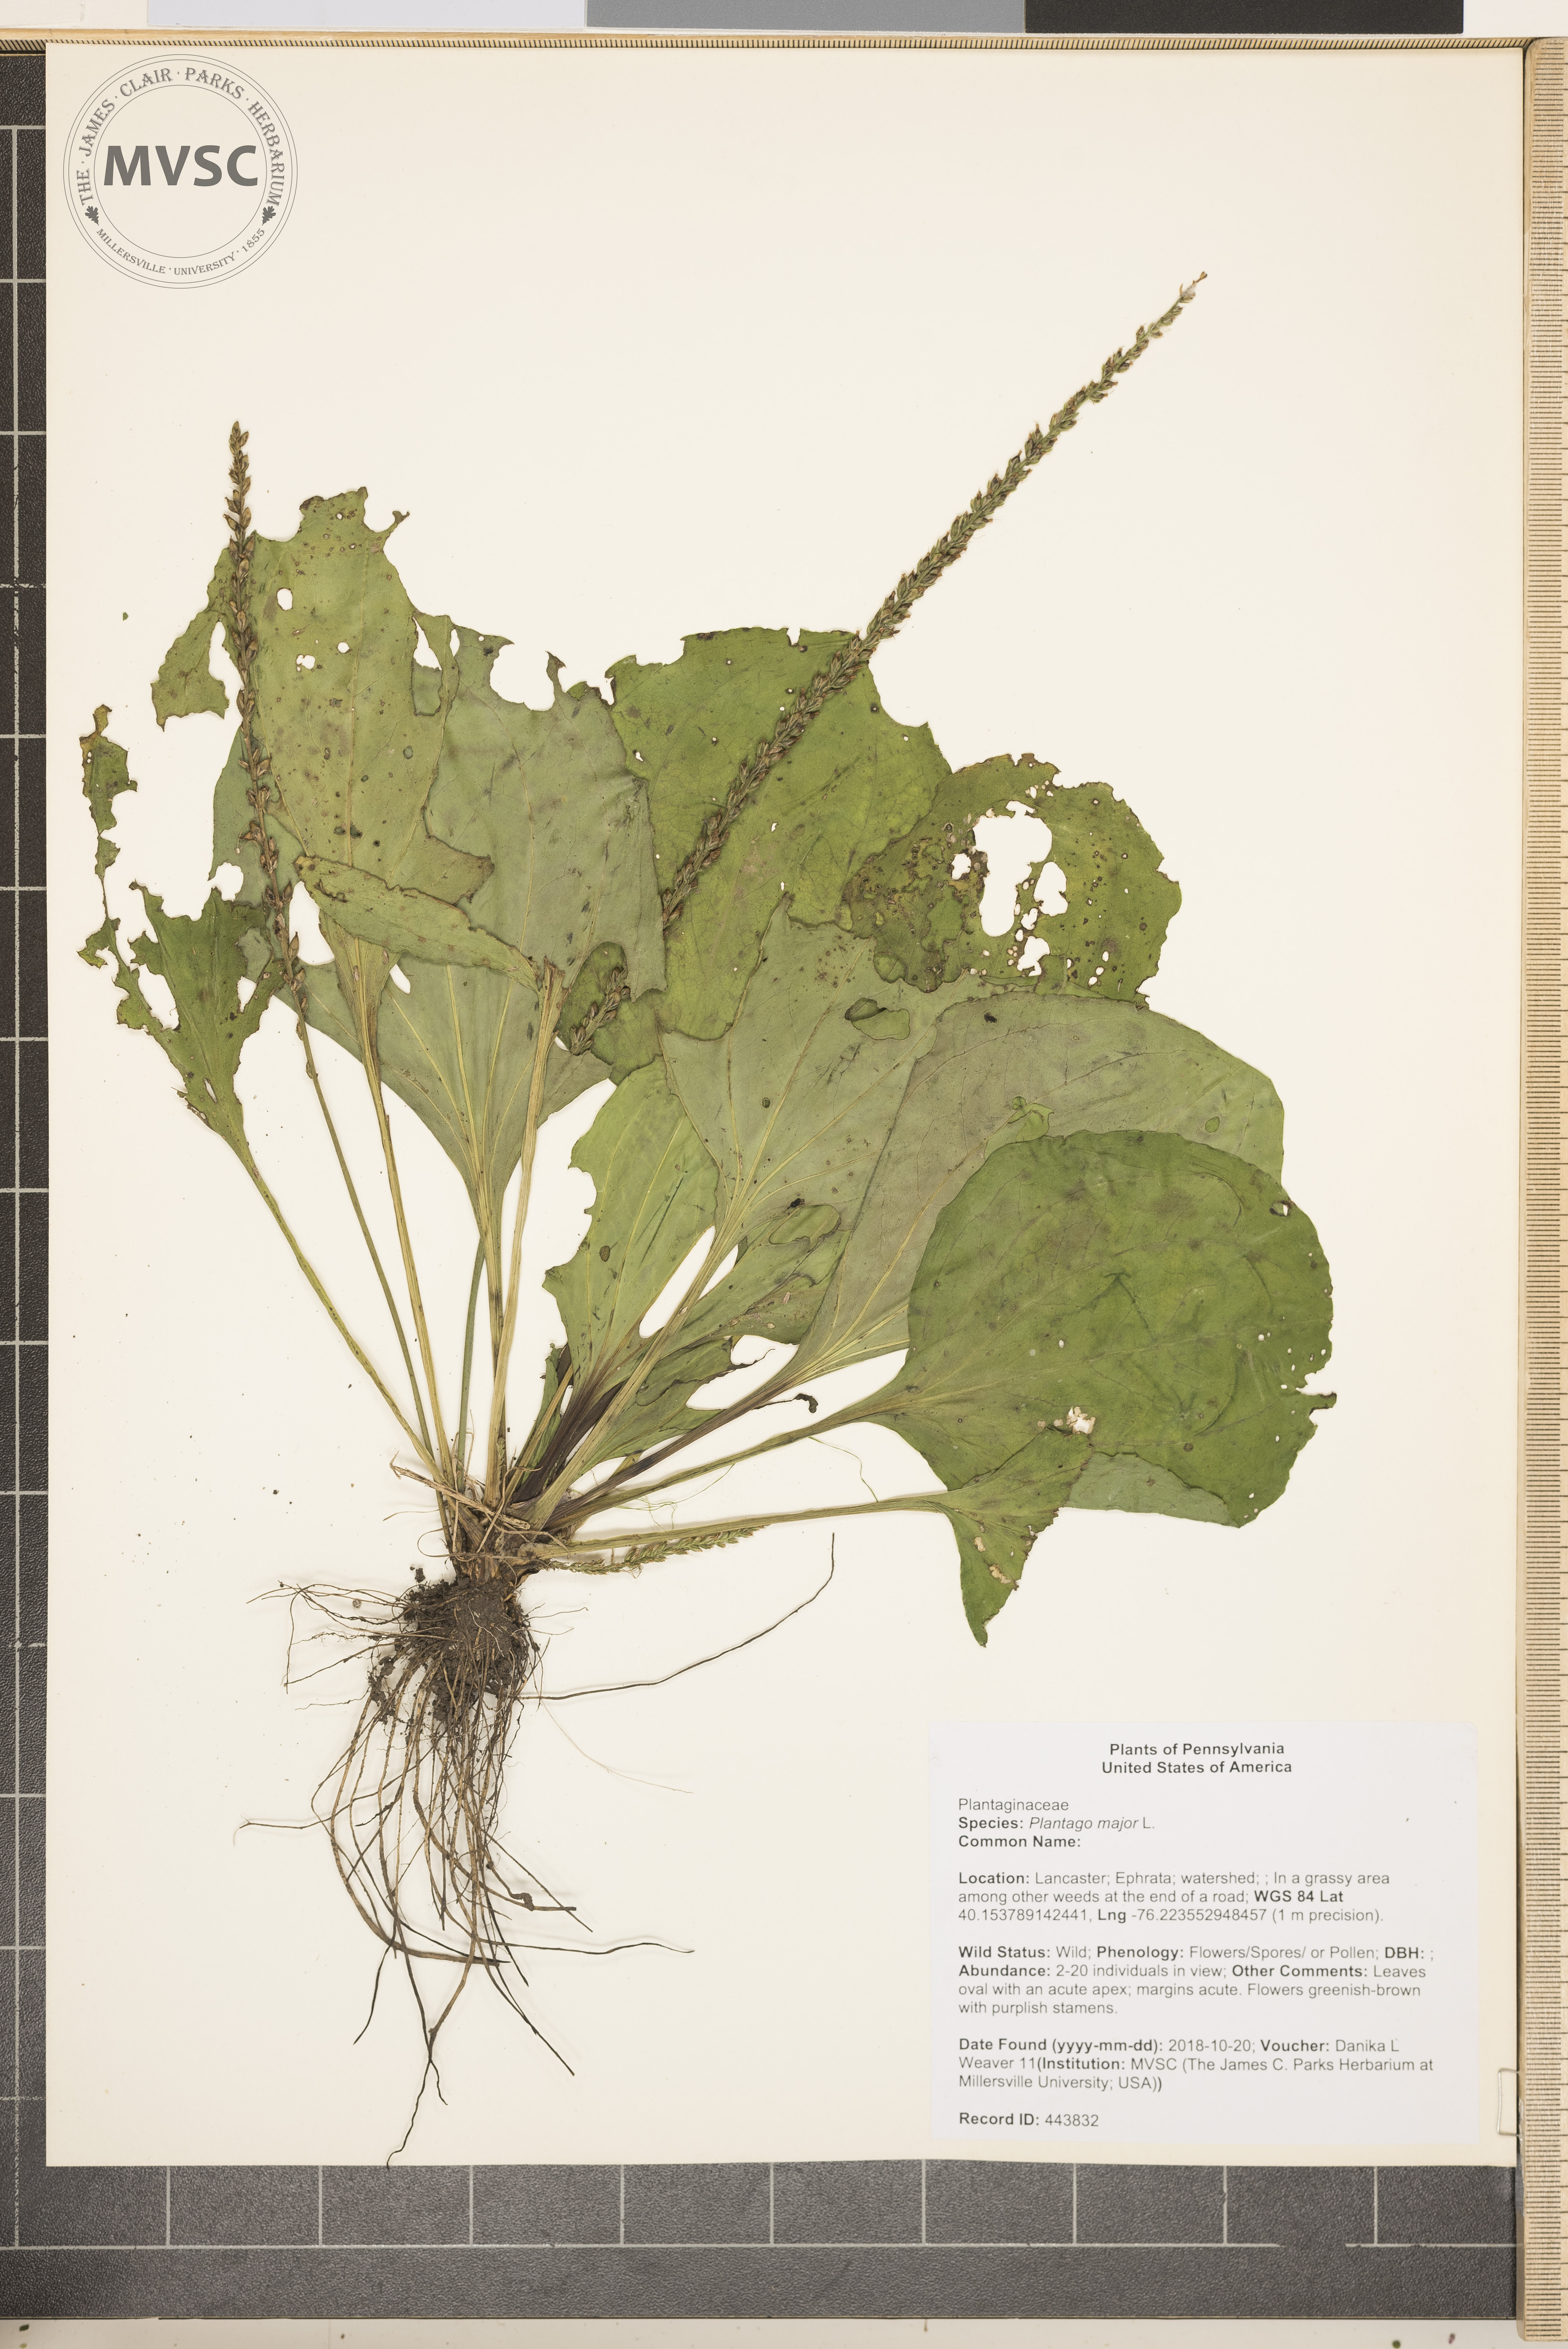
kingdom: Plantae
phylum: Tracheophyta
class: Magnoliopsida
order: Lamiales
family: Plantaginaceae
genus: Plantago
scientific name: Plantago rugelii
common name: American plantain
